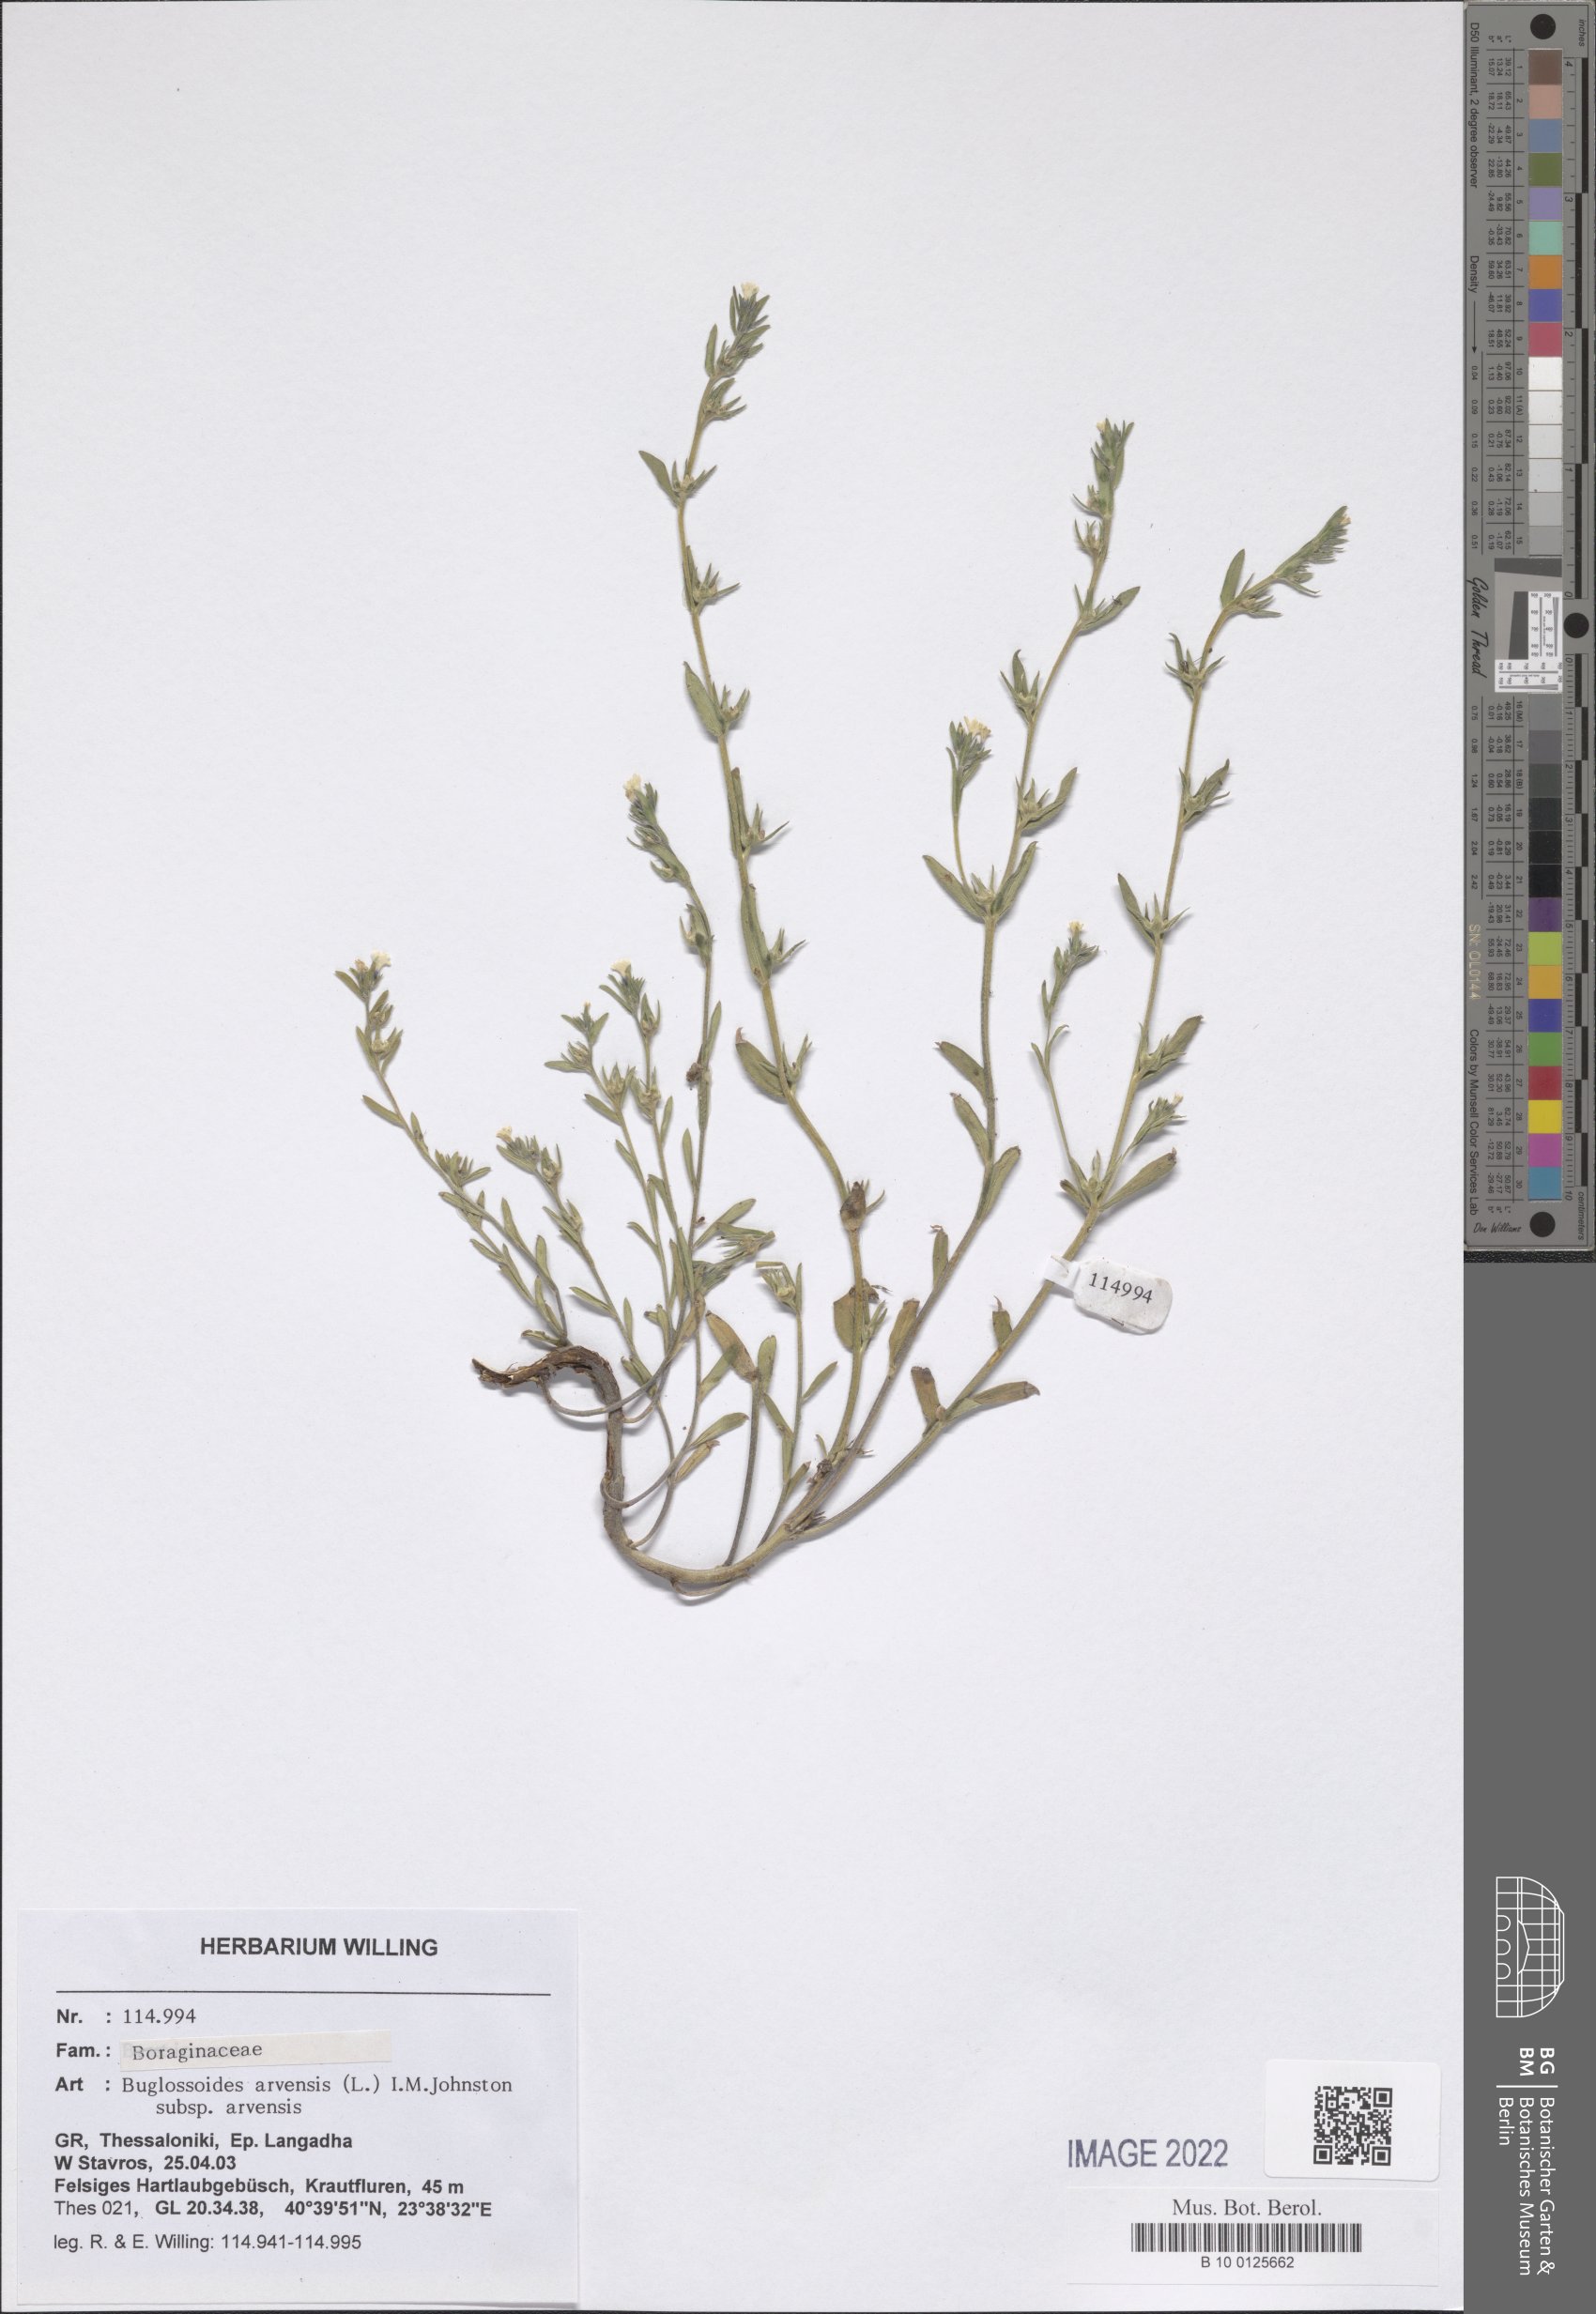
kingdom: Plantae
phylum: Tracheophyta
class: Magnoliopsida
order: Boraginales
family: Boraginaceae
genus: Buglossoides
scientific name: Buglossoides arvensis
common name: Corn gromwell
